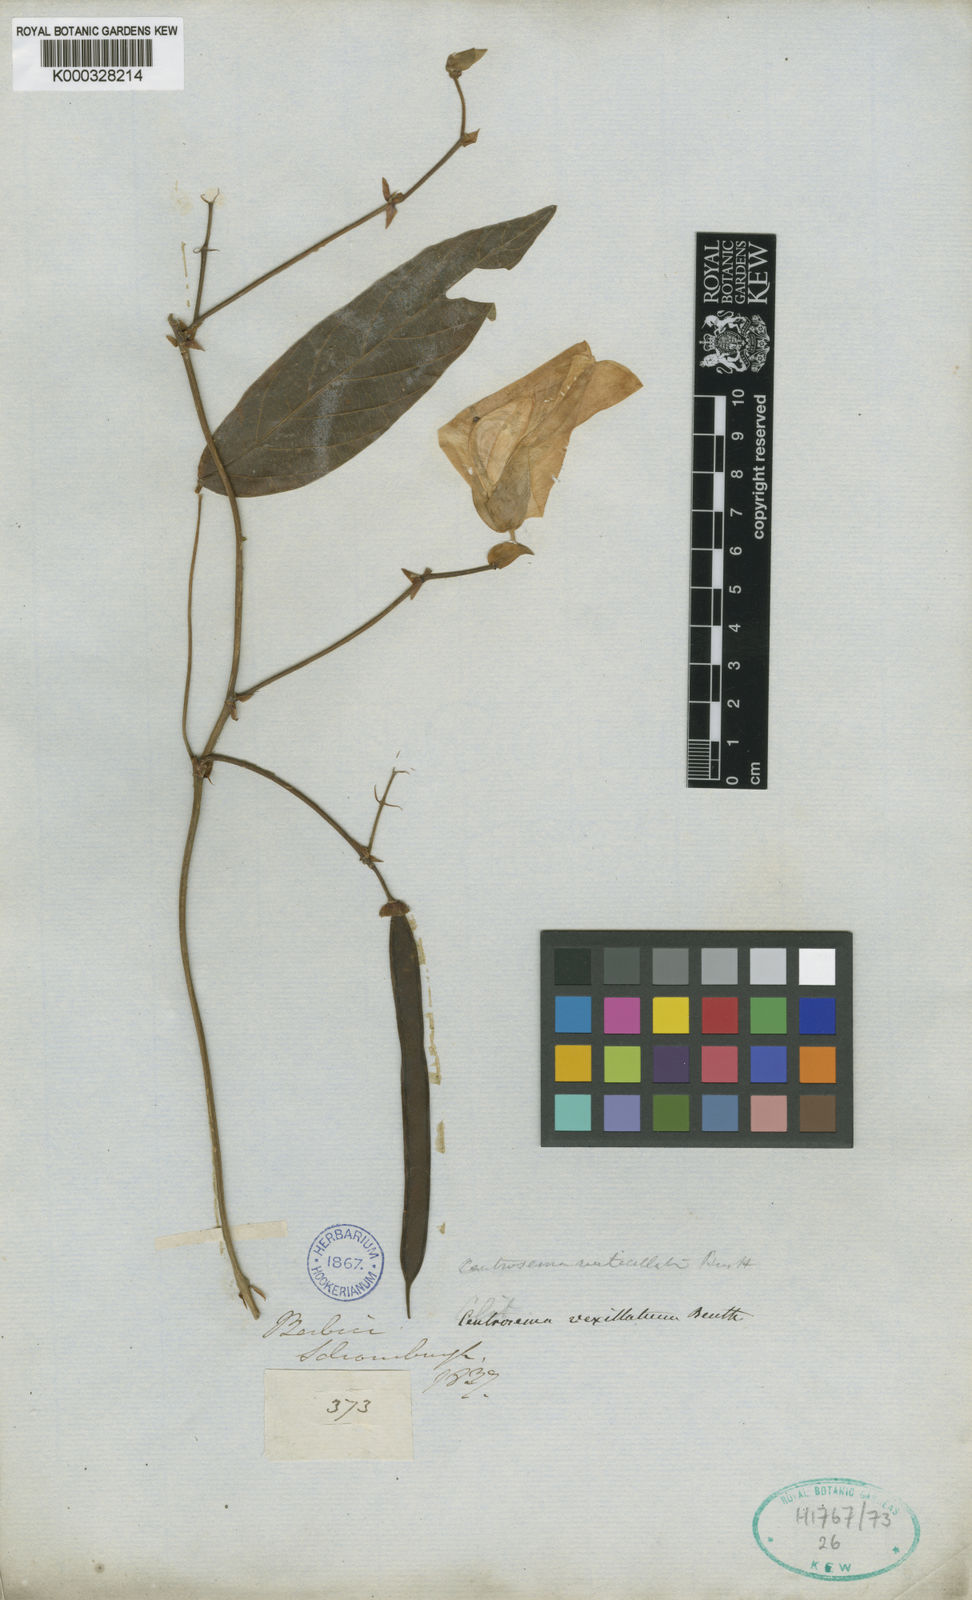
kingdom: Plantae
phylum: Tracheophyta
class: Magnoliopsida
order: Fabales
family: Fabaceae
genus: Centrosema
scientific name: Centrosema vexillatum
